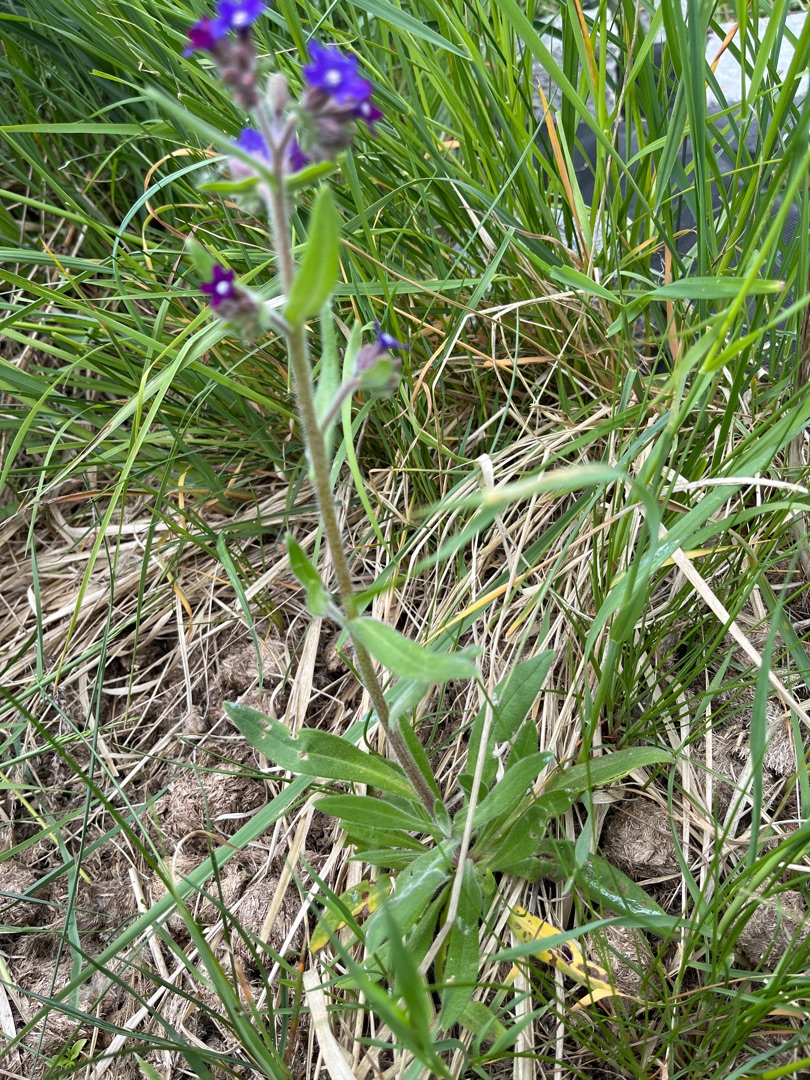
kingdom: Plantae
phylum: Tracheophyta
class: Magnoliopsida
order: Boraginales
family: Boraginaceae
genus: Anchusa
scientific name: Anchusa officinalis
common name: Læge-oksetunge
